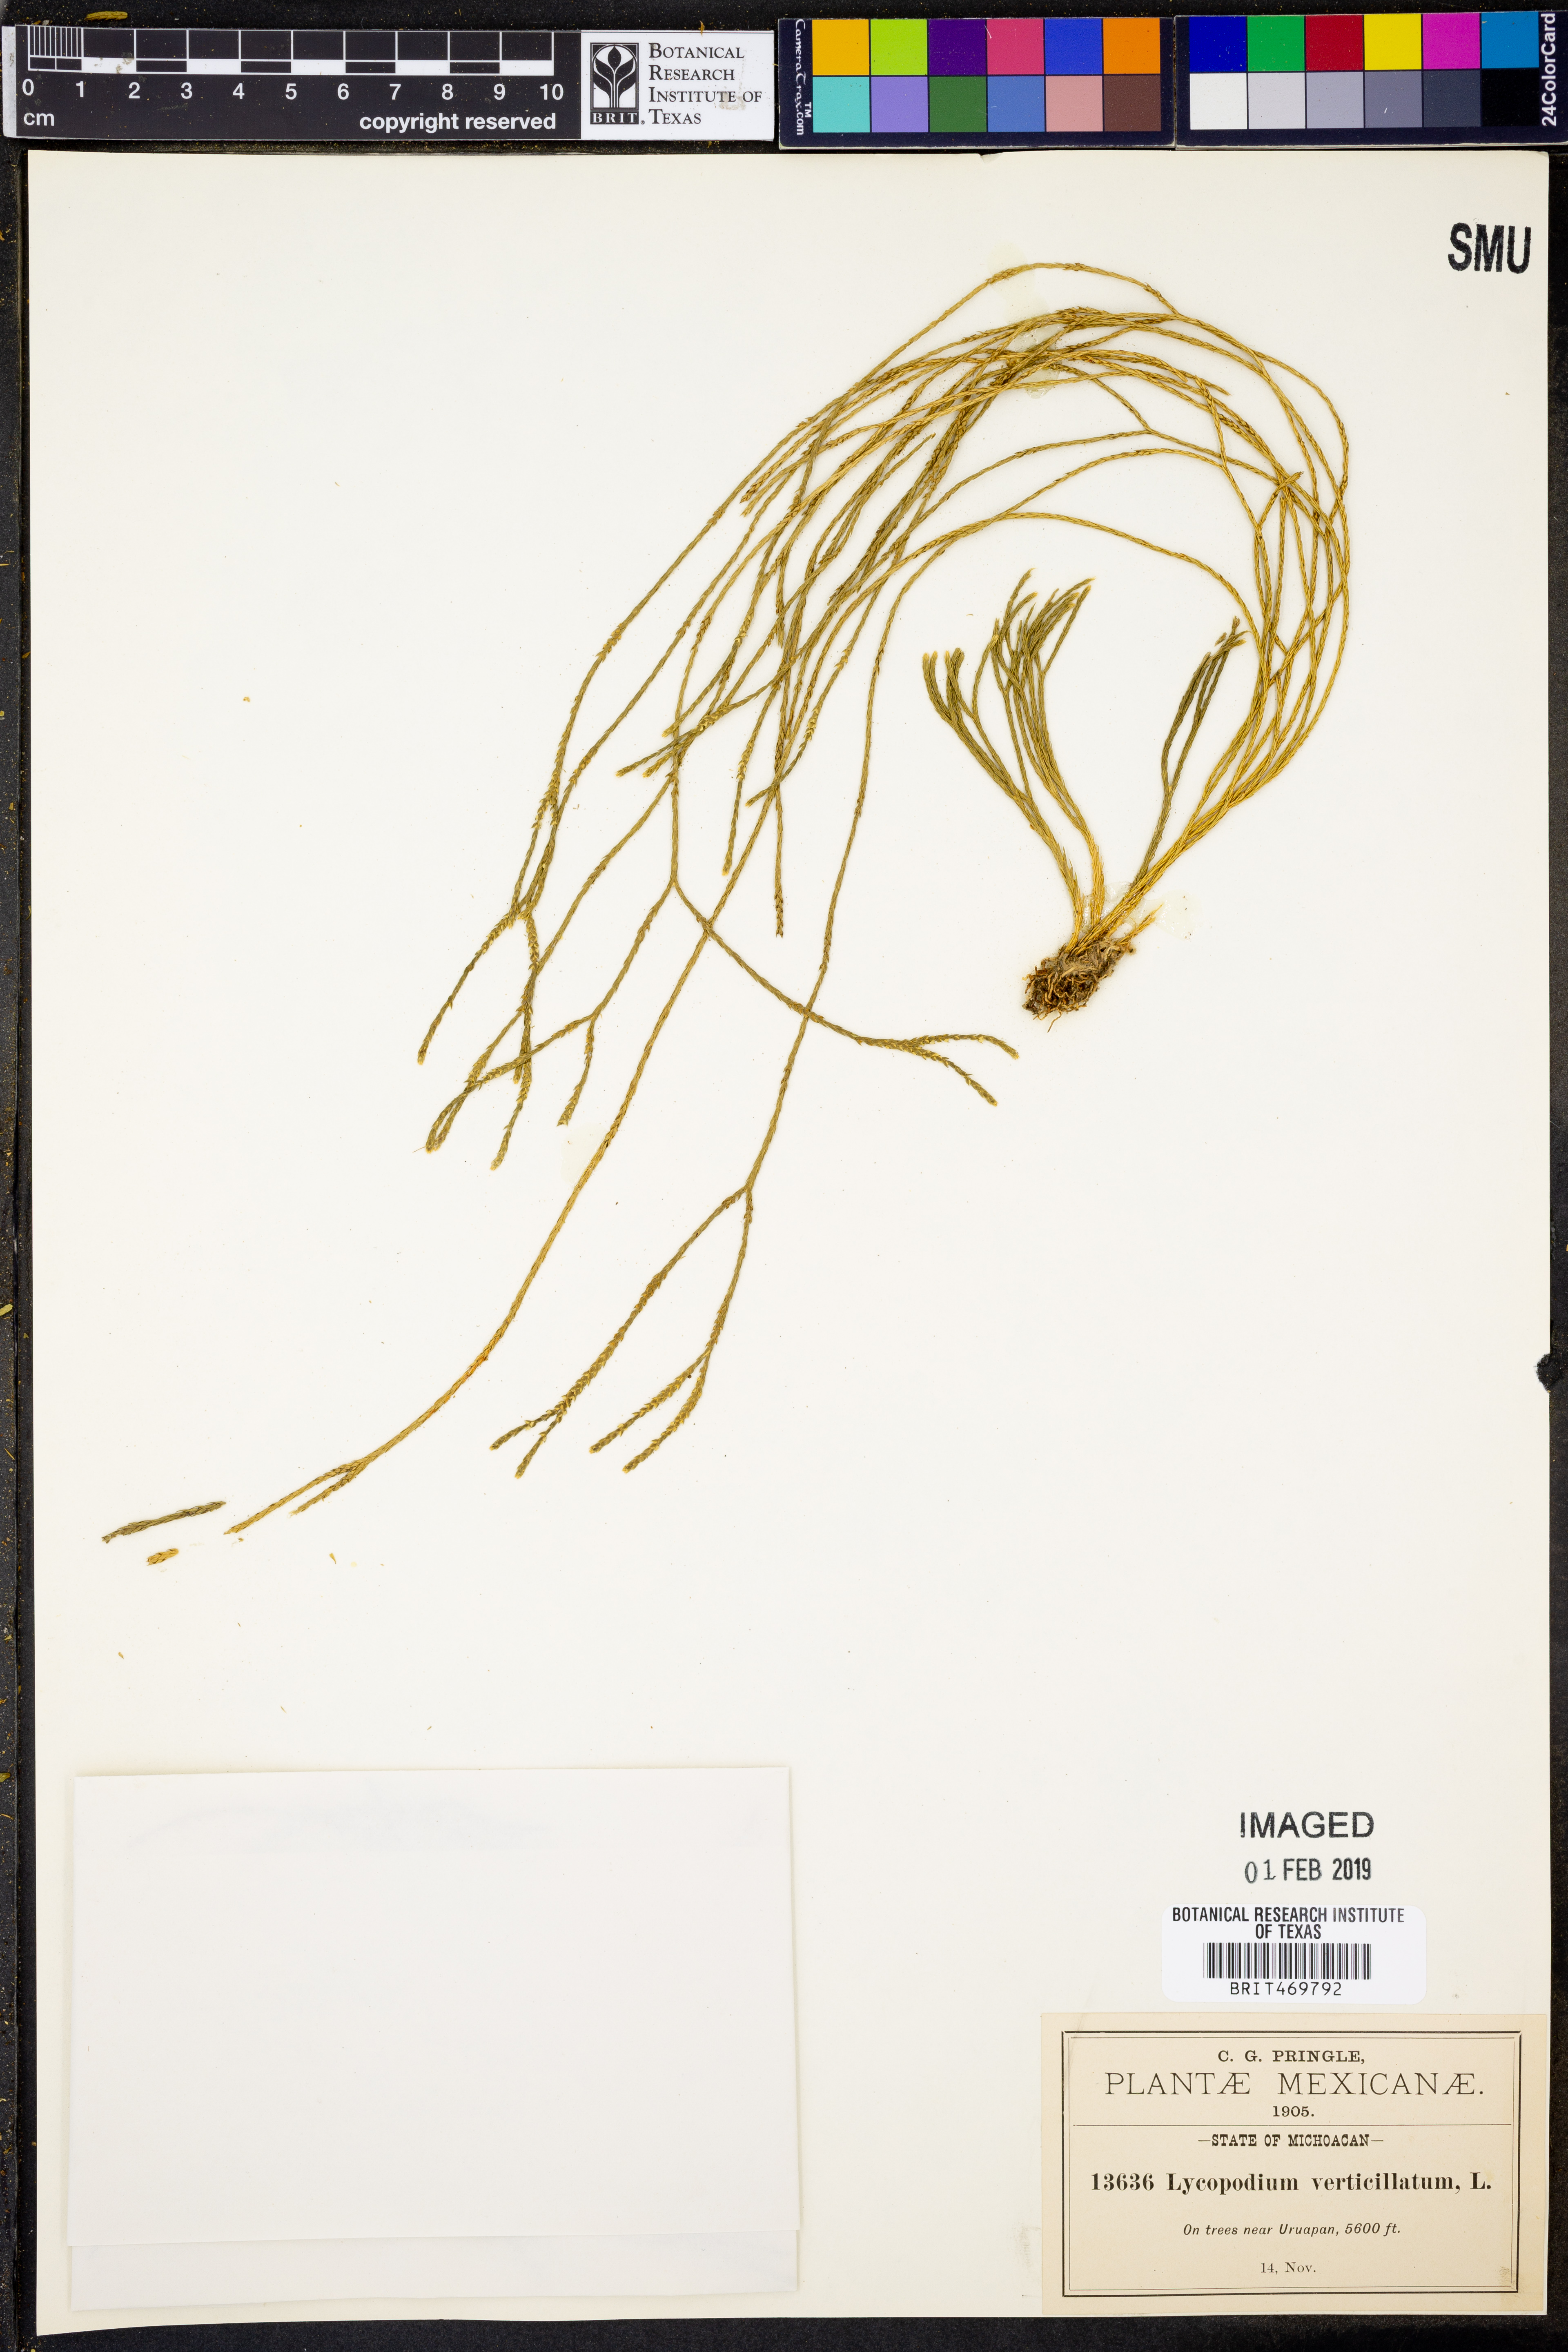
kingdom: Plantae
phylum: Tracheophyta
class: Lycopodiopsida
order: Lycopodiales
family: Lycopodiaceae
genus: Phlegmariurus
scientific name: Phlegmariurus verticillatus
